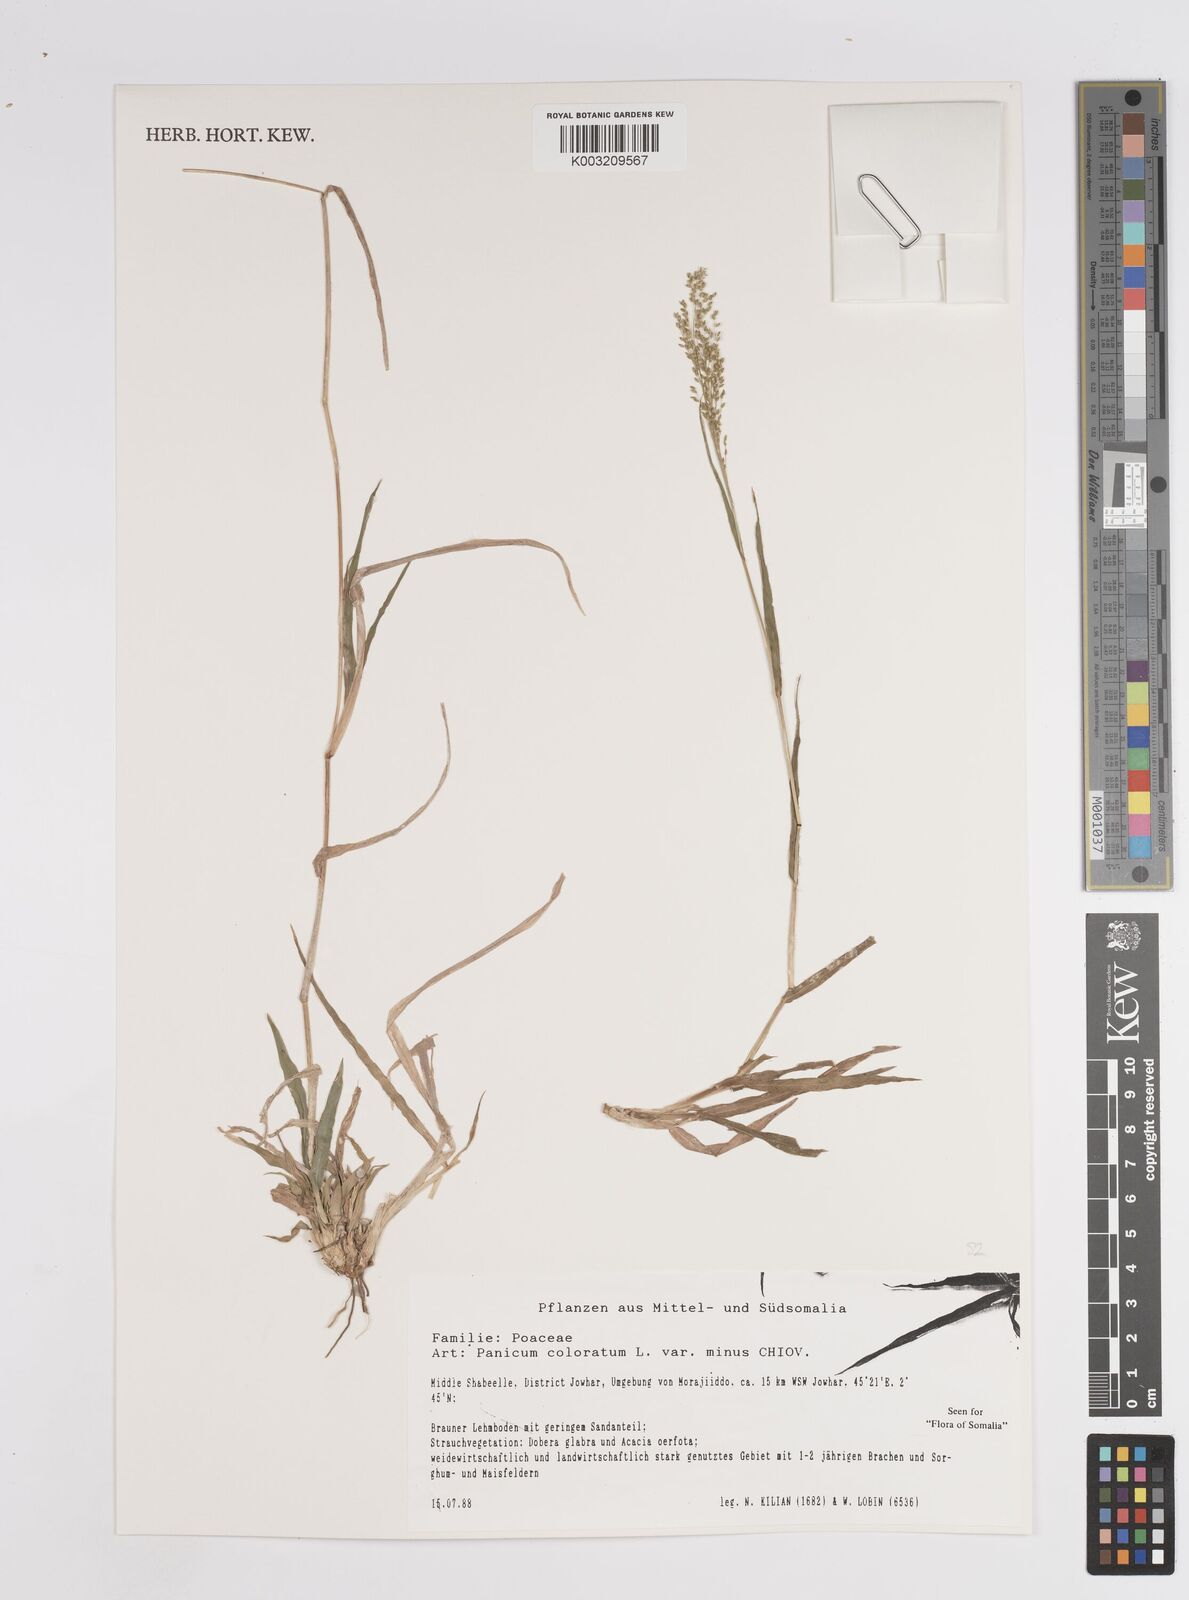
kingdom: Plantae
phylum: Tracheophyta
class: Liliopsida
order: Poales
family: Poaceae
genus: Panicum
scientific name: Panicum coloratum
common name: Kleingrass
